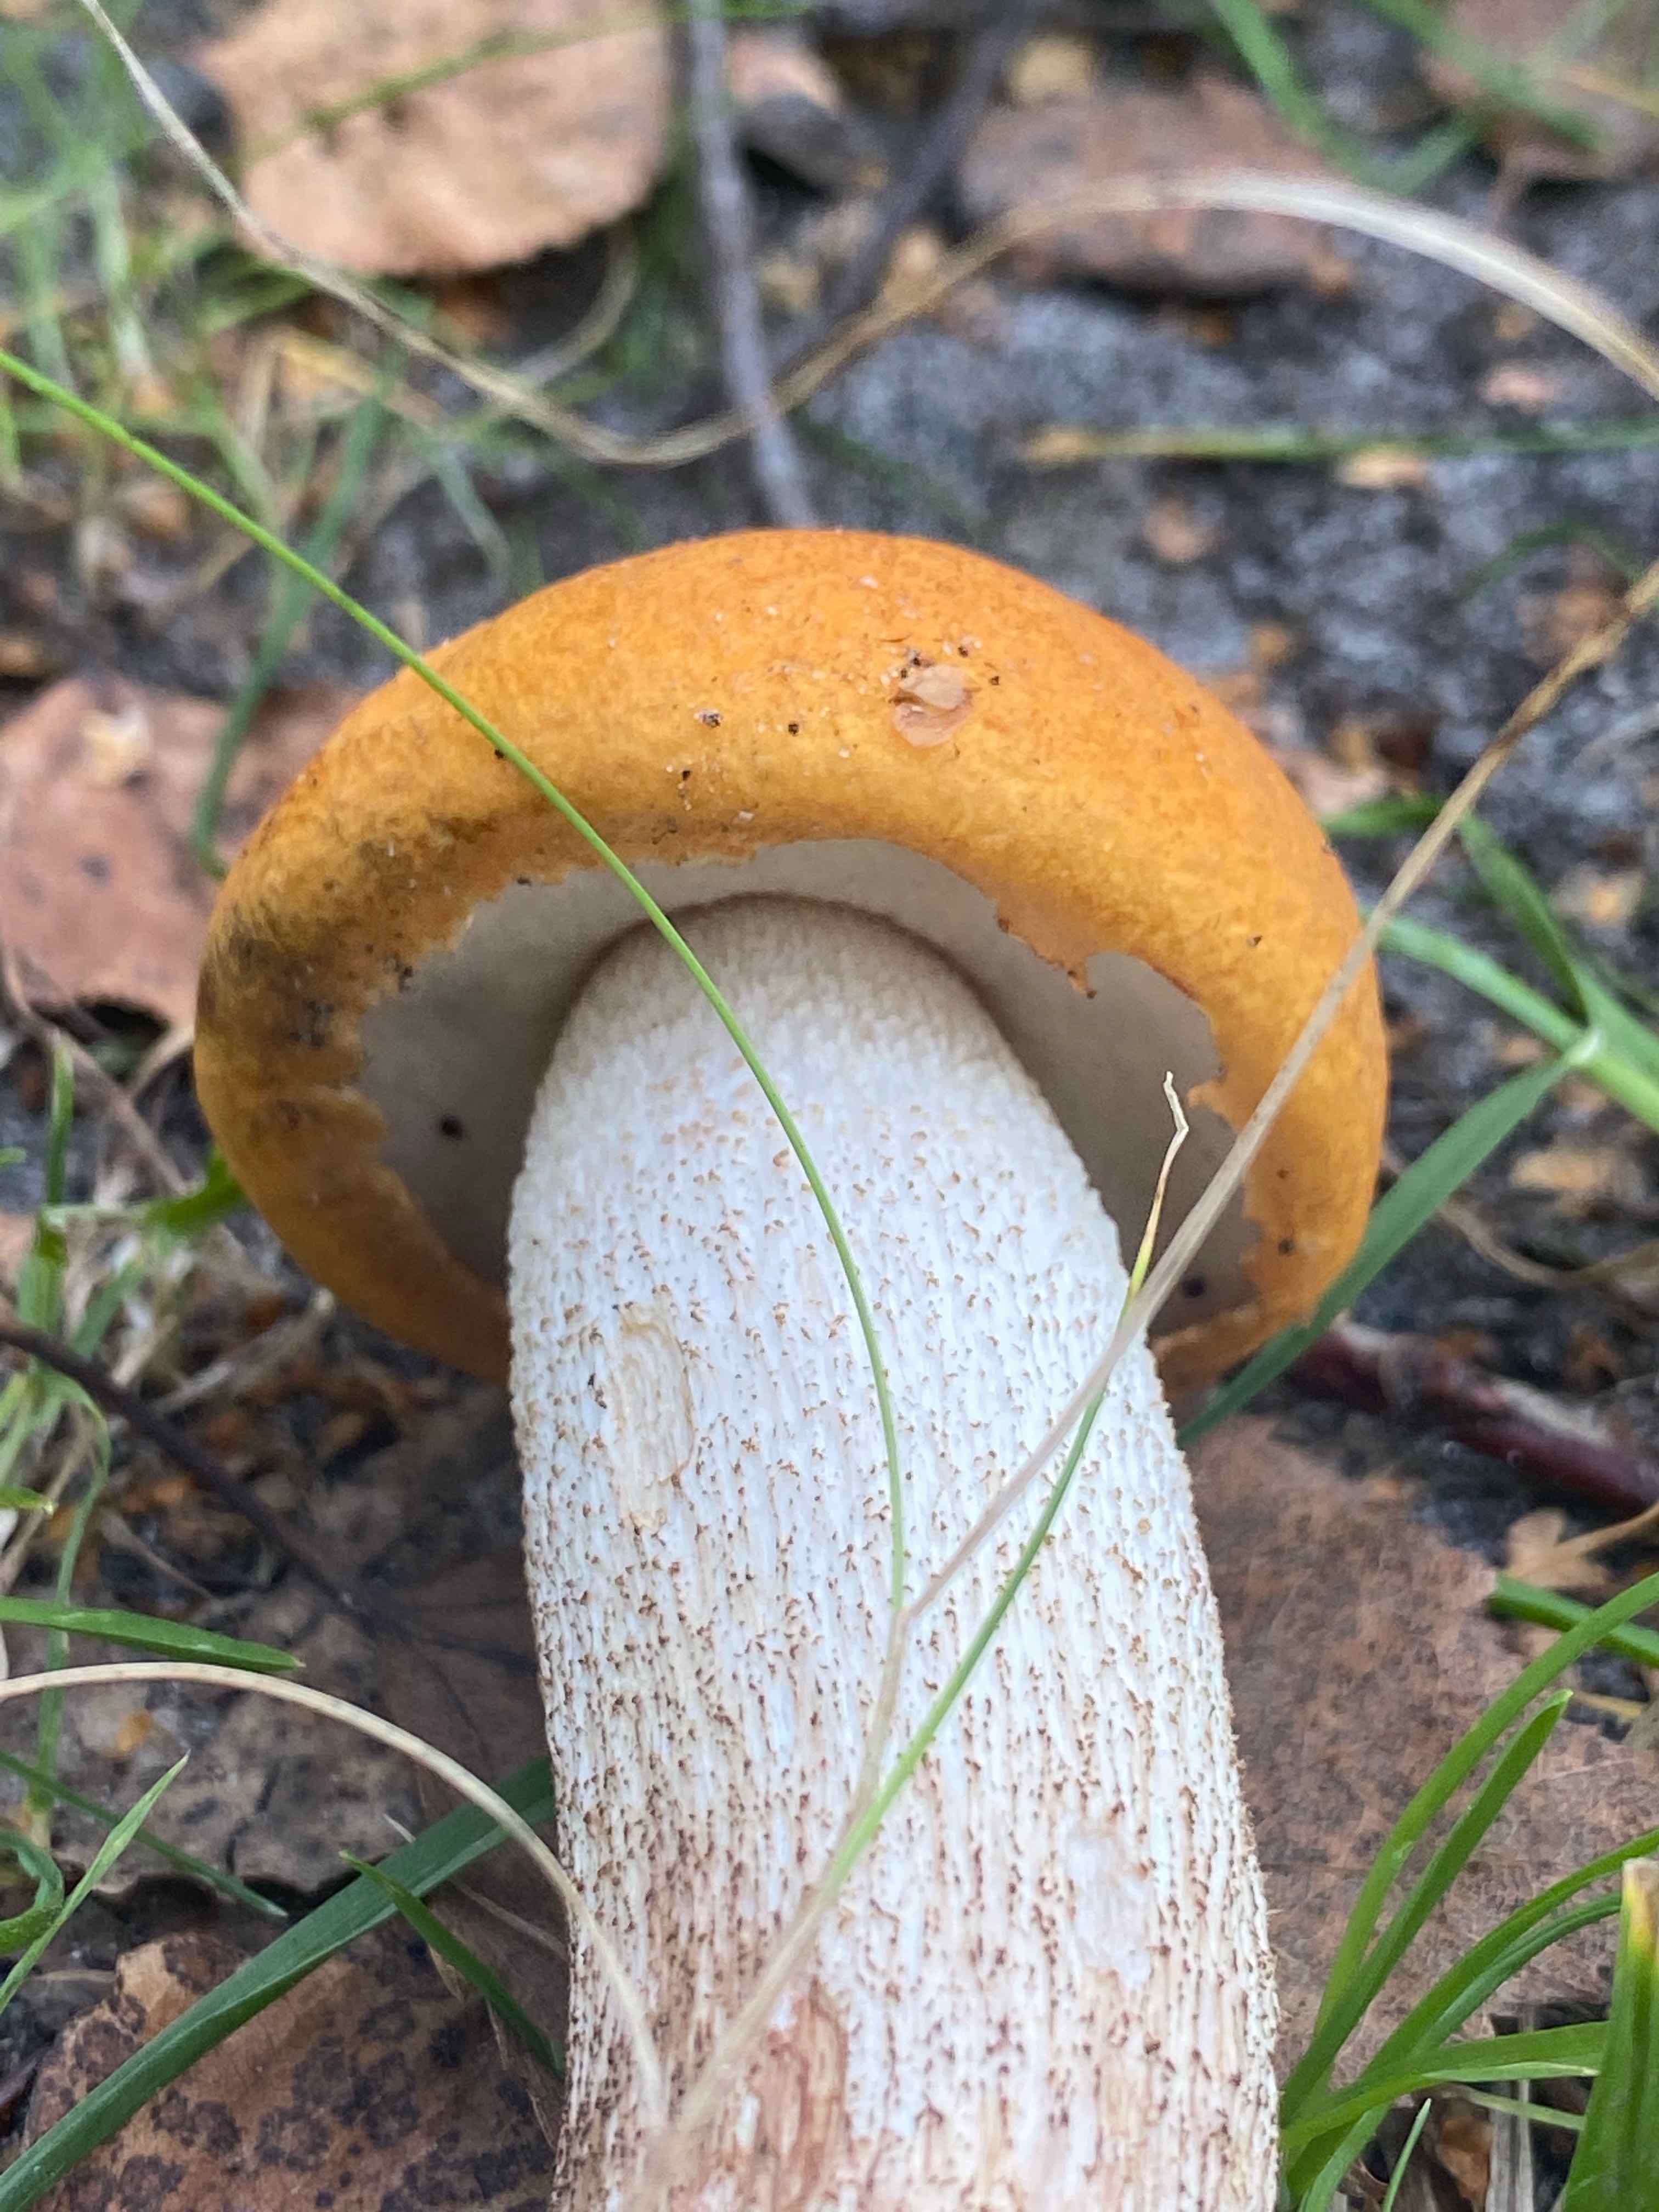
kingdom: Fungi
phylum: Basidiomycota
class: Agaricomycetes
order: Boletales
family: Boletaceae
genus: Leccinum
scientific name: Leccinum albostipitatum
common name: aspe-skælrørhat
